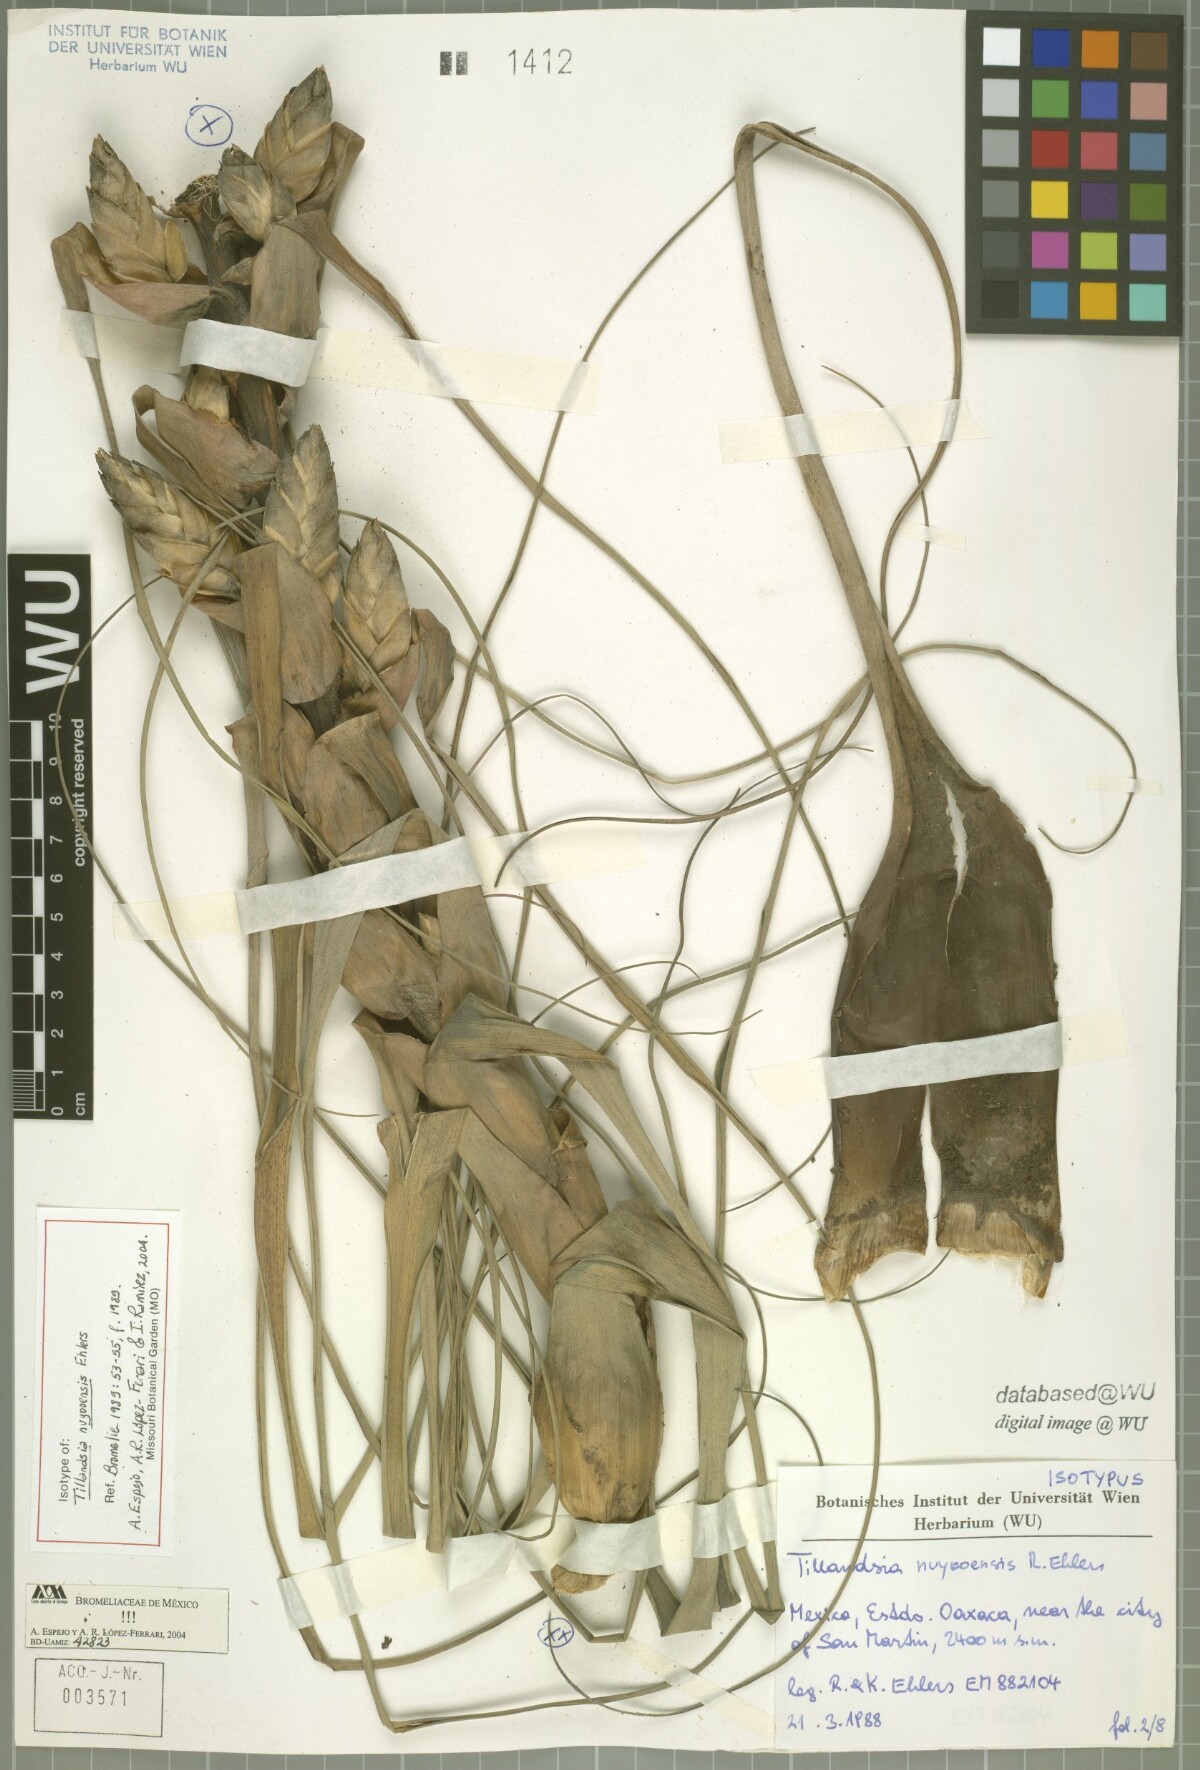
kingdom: Plantae
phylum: Tracheophyta
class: Liliopsida
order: Poales
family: Bromeliaceae
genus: Tillandsia
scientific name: Tillandsia nuyooensis
